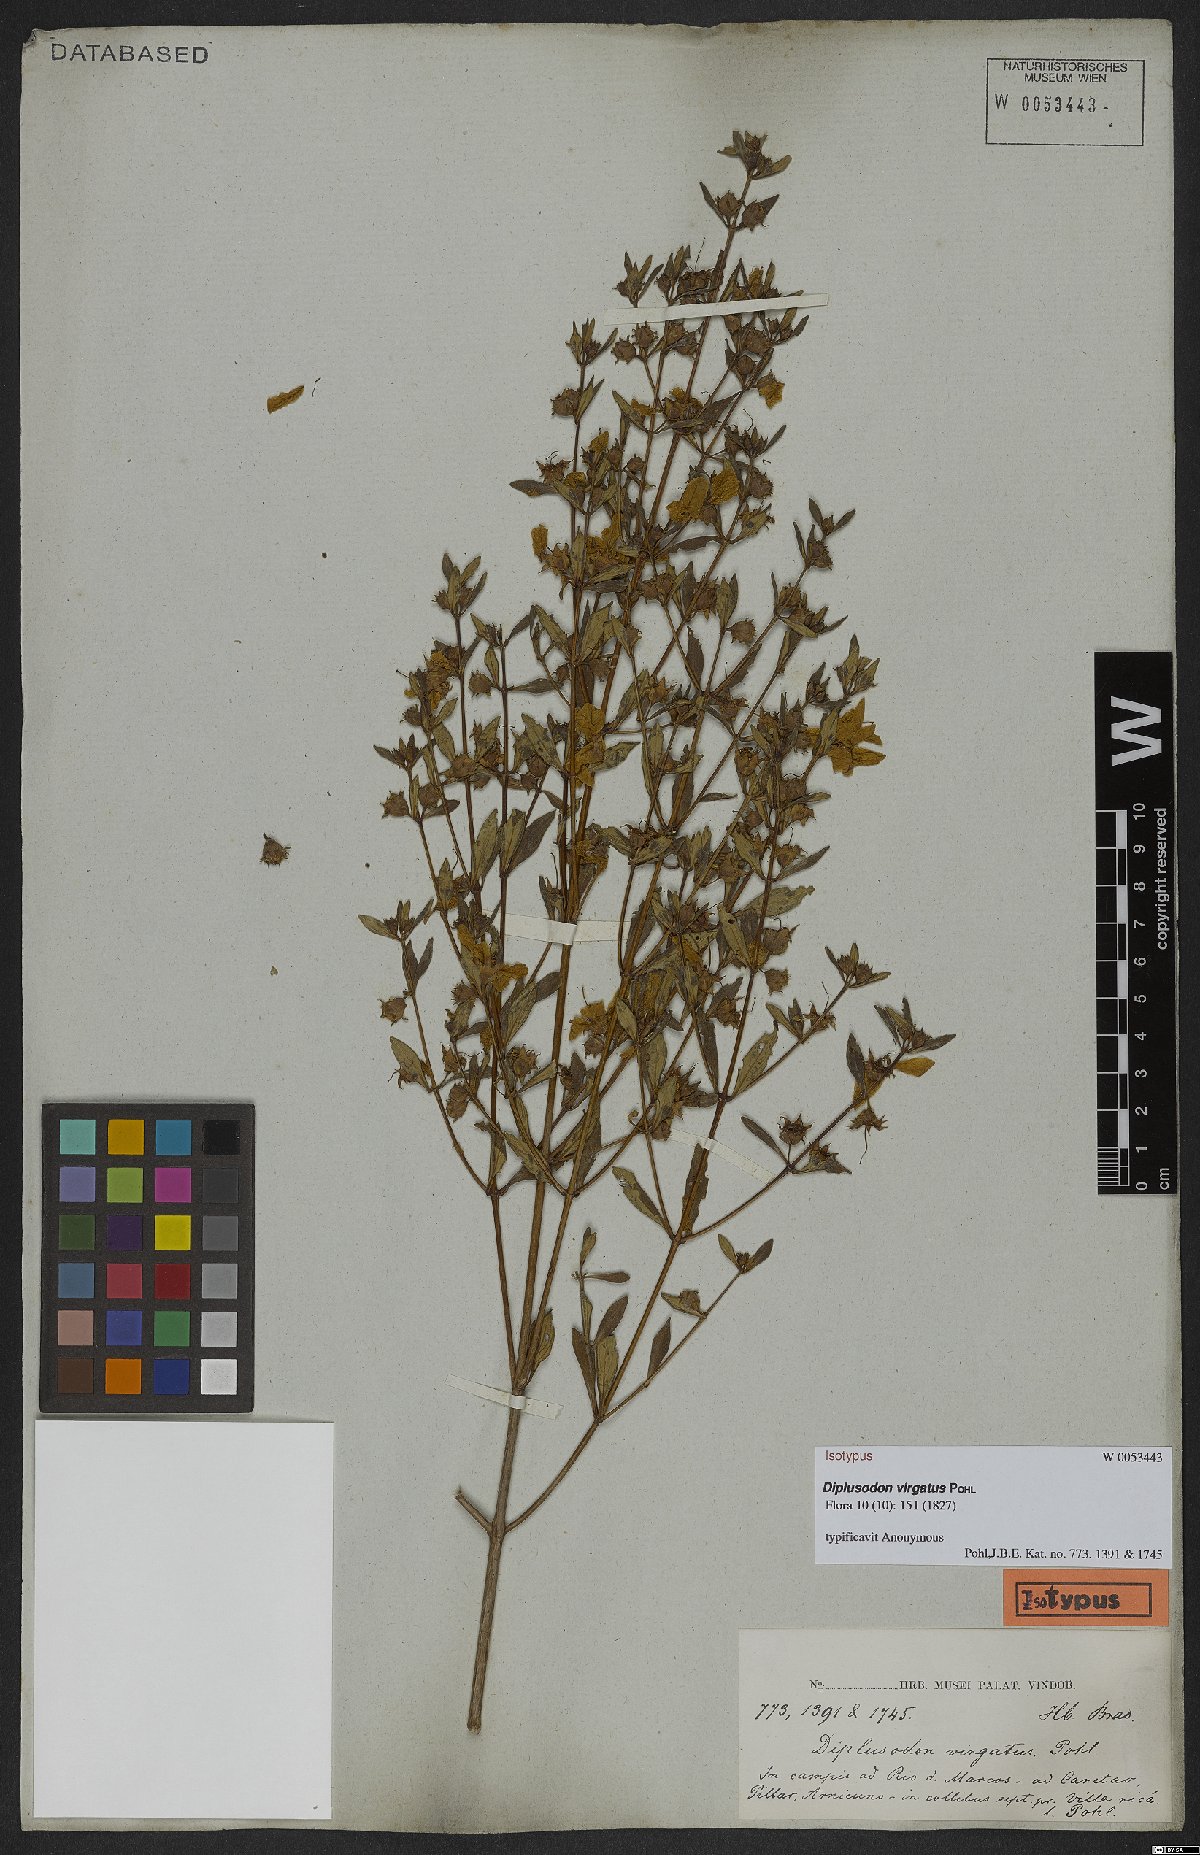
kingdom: Plantae
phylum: Tracheophyta
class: Magnoliopsida
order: Myrtales
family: Lythraceae
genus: Diplusodon
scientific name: Diplusodon virgatus
